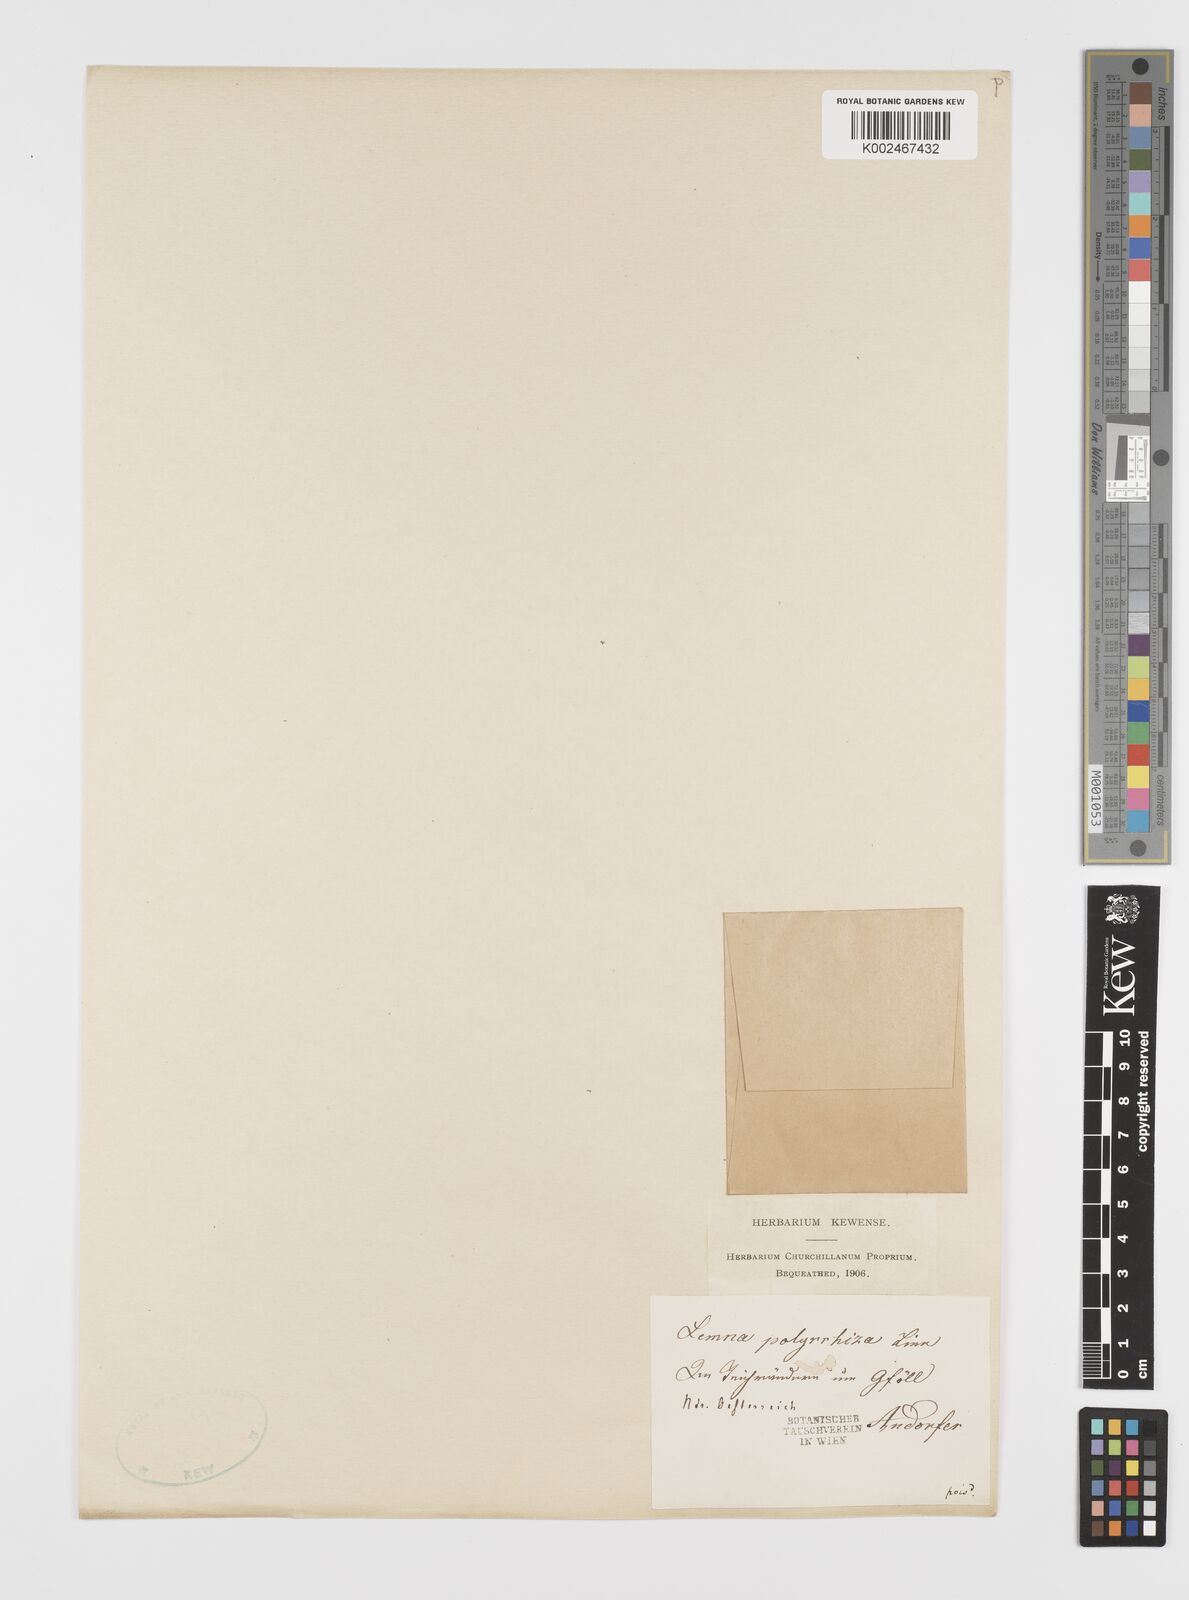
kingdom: Plantae
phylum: Tracheophyta
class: Liliopsida
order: Alismatales
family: Araceae
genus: Spirodela
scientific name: Spirodela polyrhiza
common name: Great duckweed
